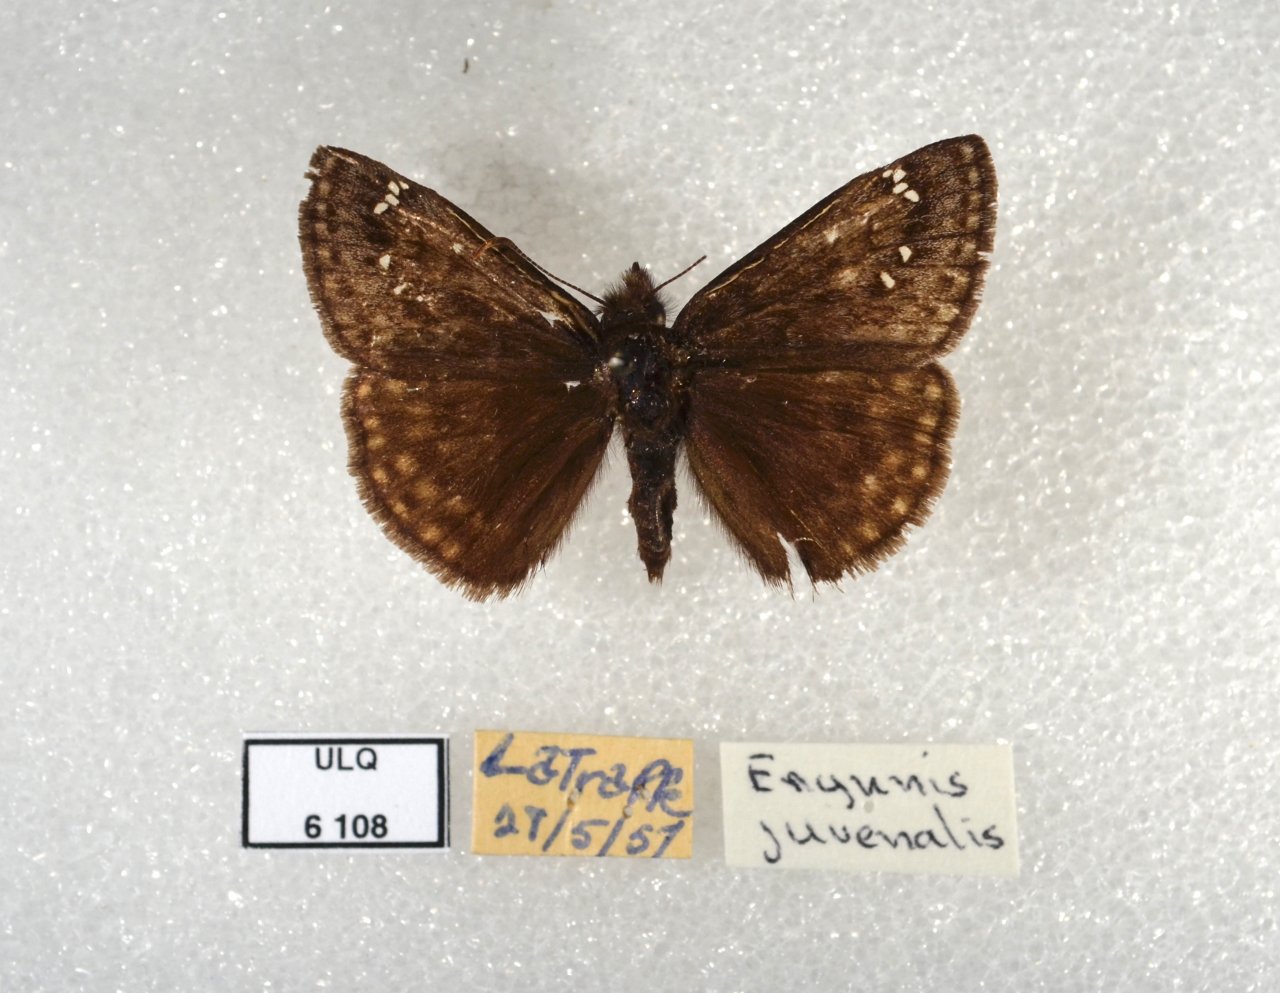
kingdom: Animalia
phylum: Arthropoda
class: Insecta
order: Lepidoptera
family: Hesperiidae
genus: Gesta
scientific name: Gesta
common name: Juvenal's Duskywing
